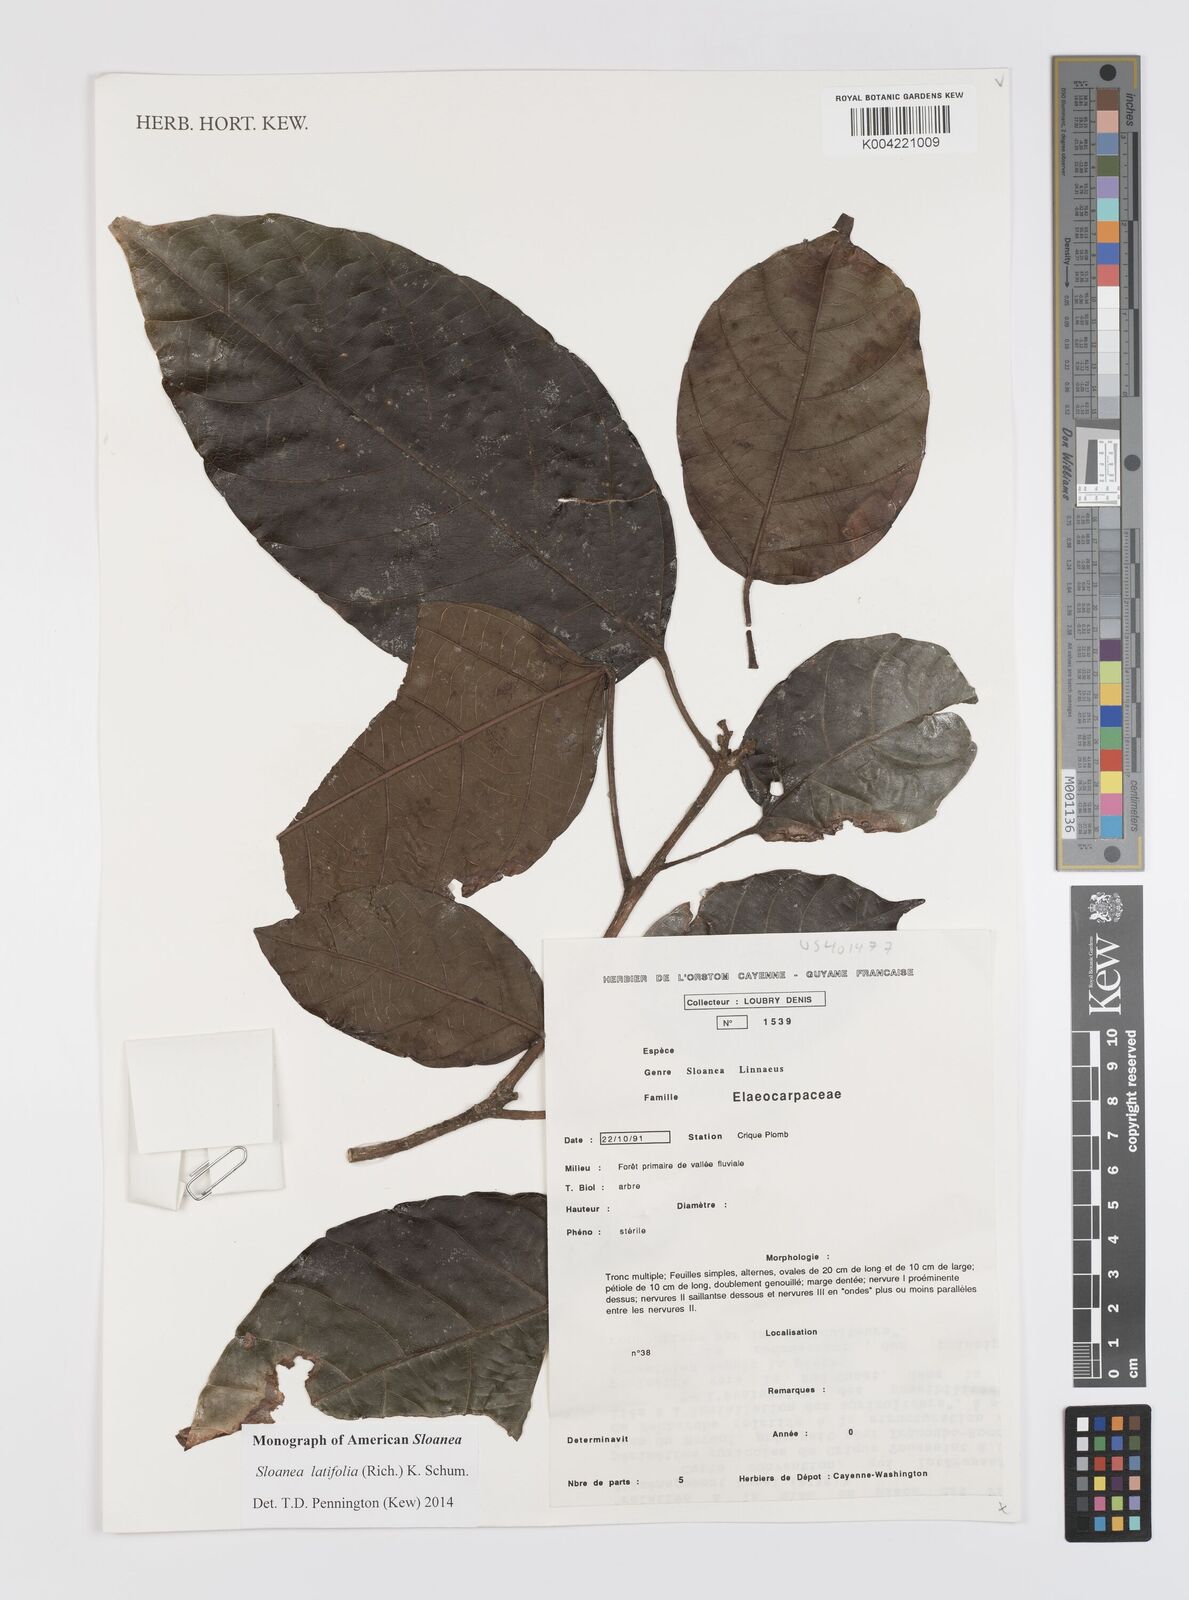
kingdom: Plantae
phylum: Tracheophyta
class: Magnoliopsida
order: Oxalidales
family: Elaeocarpaceae
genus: Sloanea
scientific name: Sloanea latifolia
